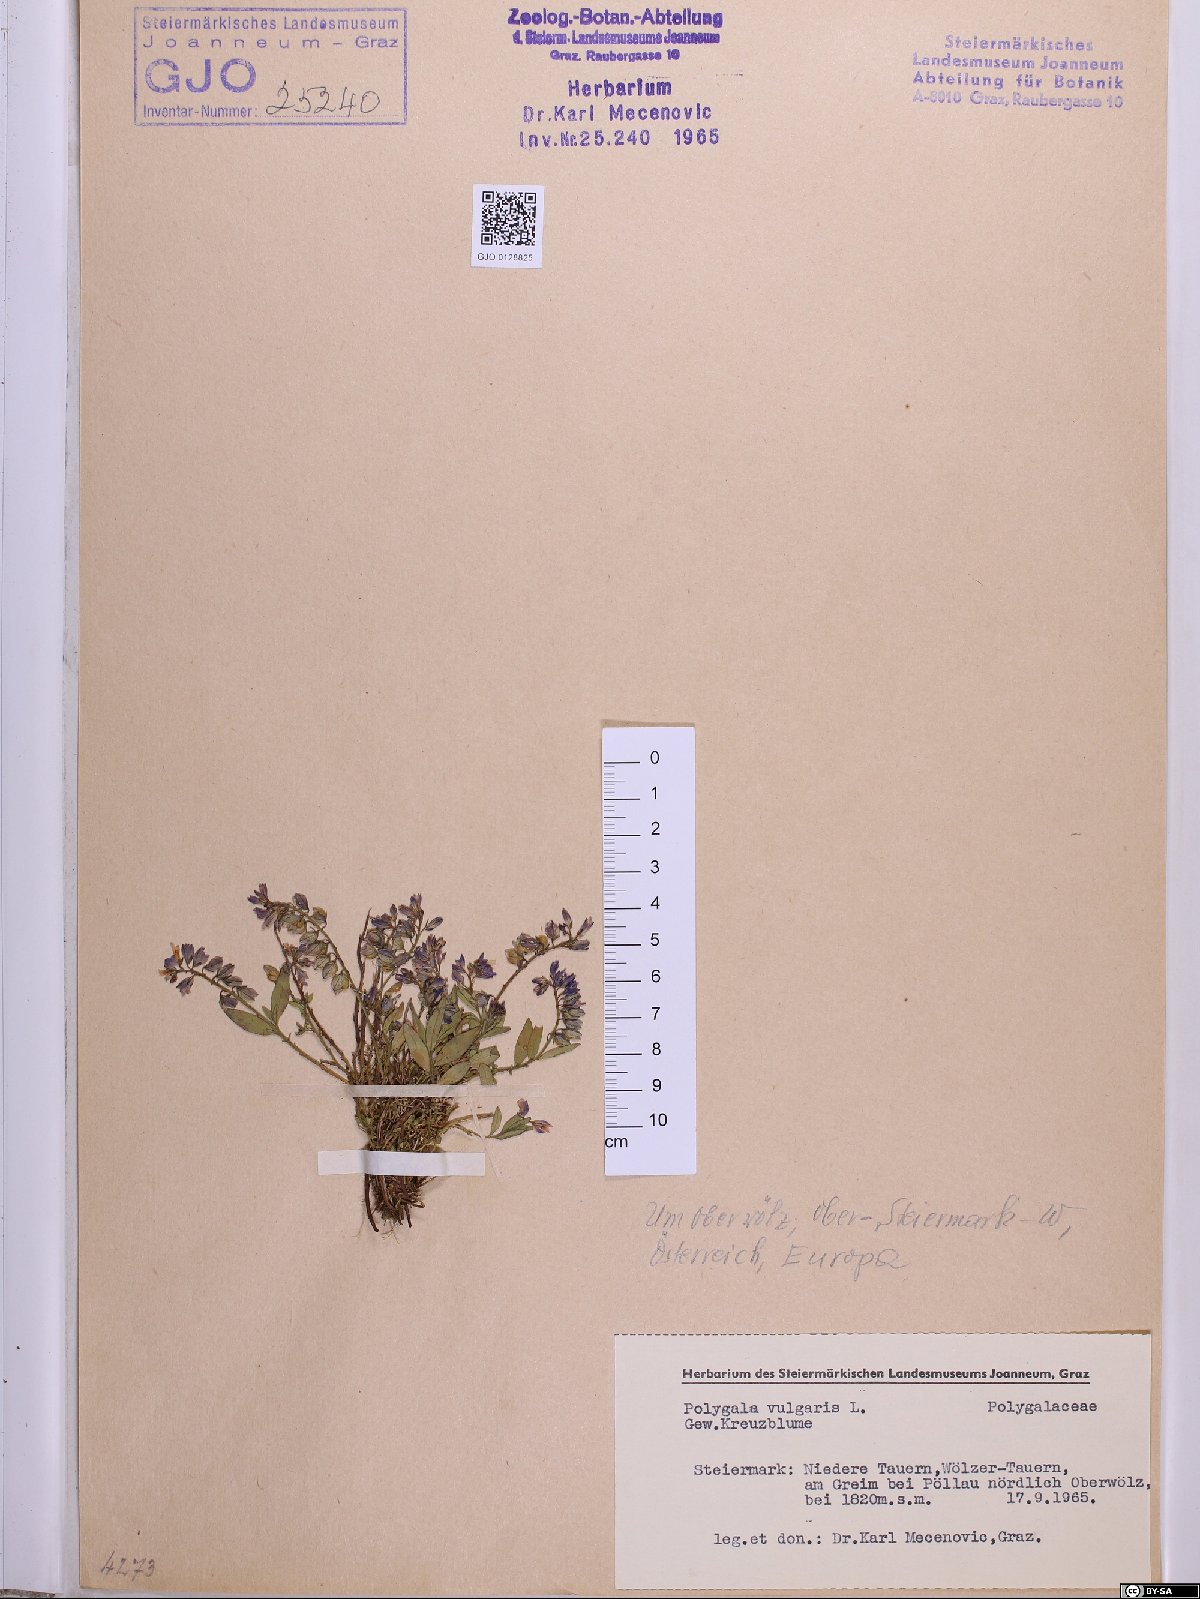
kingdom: Plantae
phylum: Tracheophyta
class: Magnoliopsida
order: Fabales
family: Polygalaceae
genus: Polygala
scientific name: Polygala vulgaris
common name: Common milkwort
